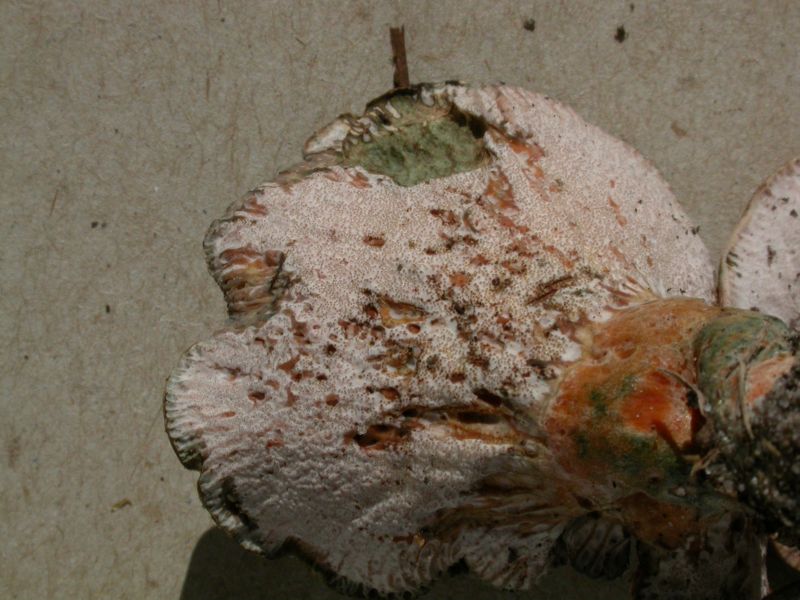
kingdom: Fungi
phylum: Ascomycota
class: Sordariomycetes
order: Hypocreales
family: Hypocreaceae
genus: Hypomyces
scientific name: Hypomyces lateritius
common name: mælkehat-snylteskorpe
